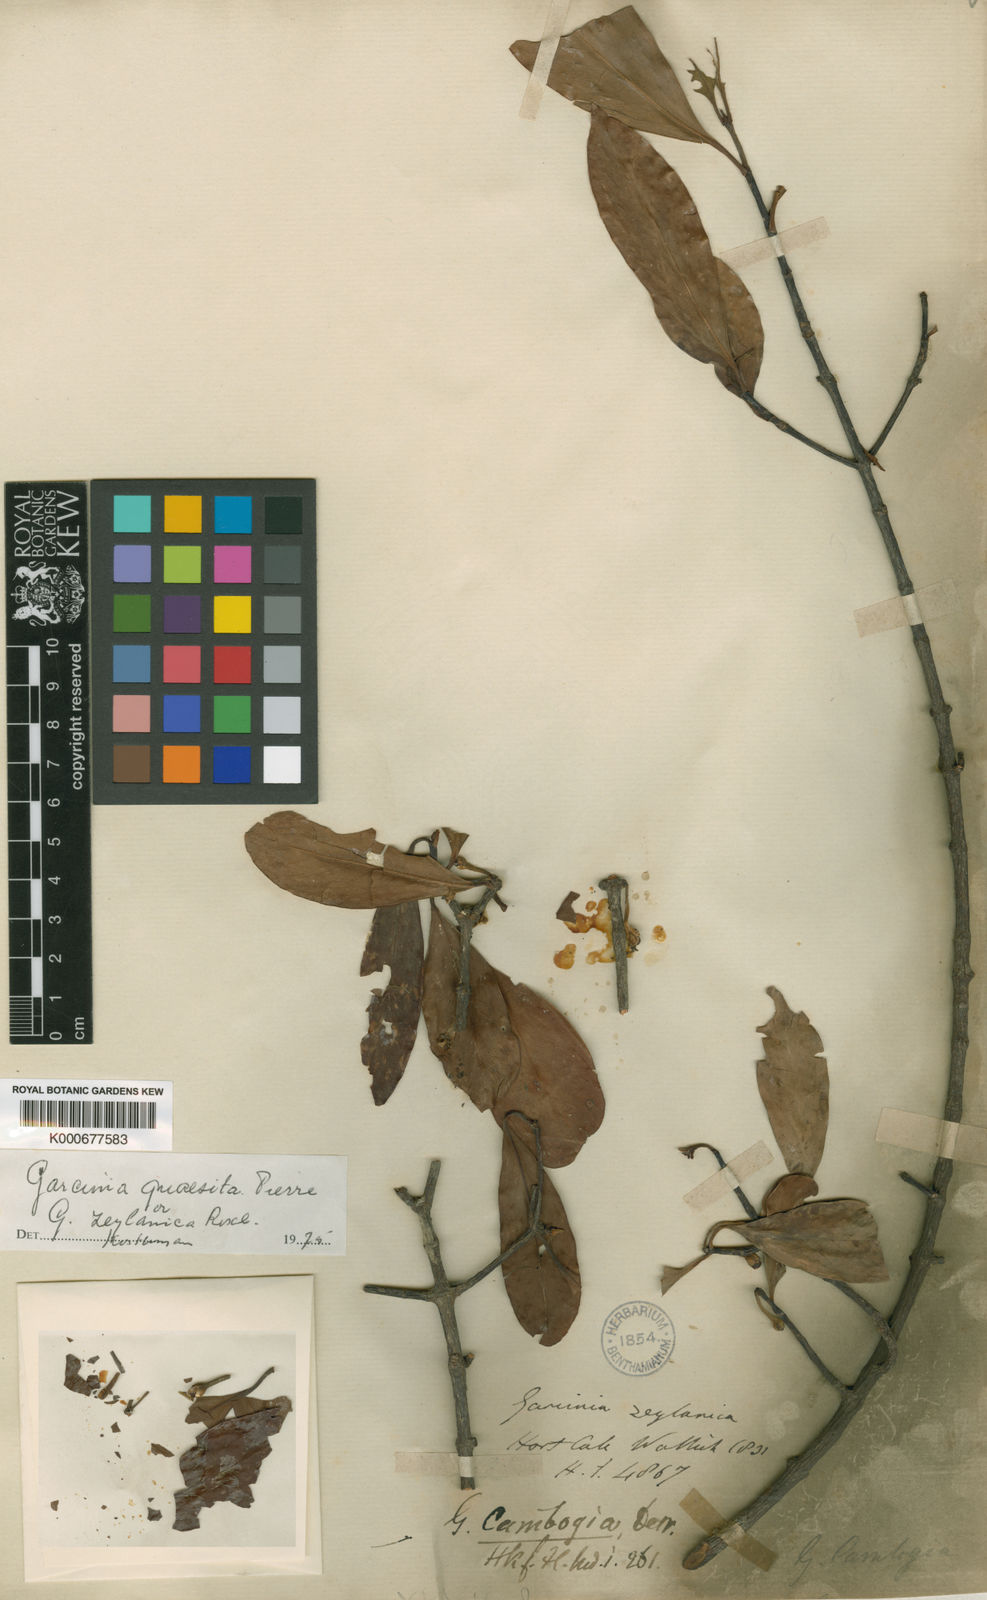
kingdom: Plantae
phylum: Tracheophyta
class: Magnoliopsida
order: Malpighiales
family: Clusiaceae
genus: Garcinia
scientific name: Garcinia gummi-gutta
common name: Malabar tamarind
